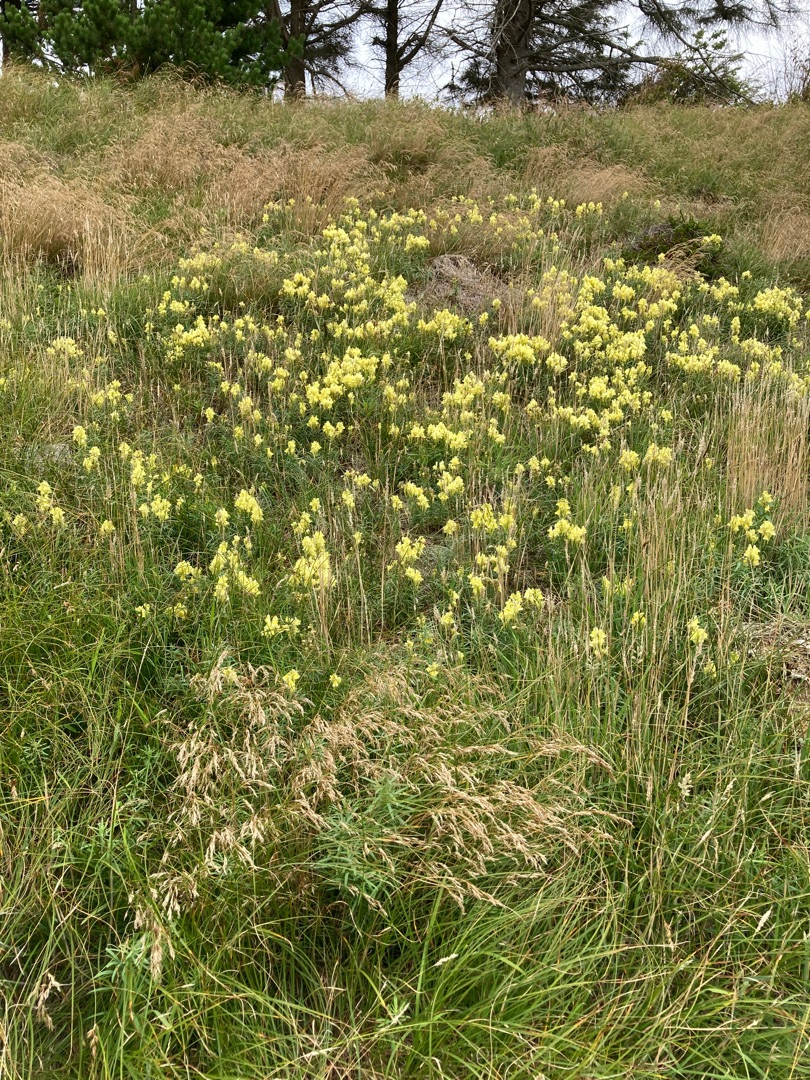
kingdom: Plantae
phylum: Tracheophyta
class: Magnoliopsida
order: Lamiales
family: Plantaginaceae
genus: Linaria
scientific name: Linaria vulgaris
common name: Almindelig torskemund
